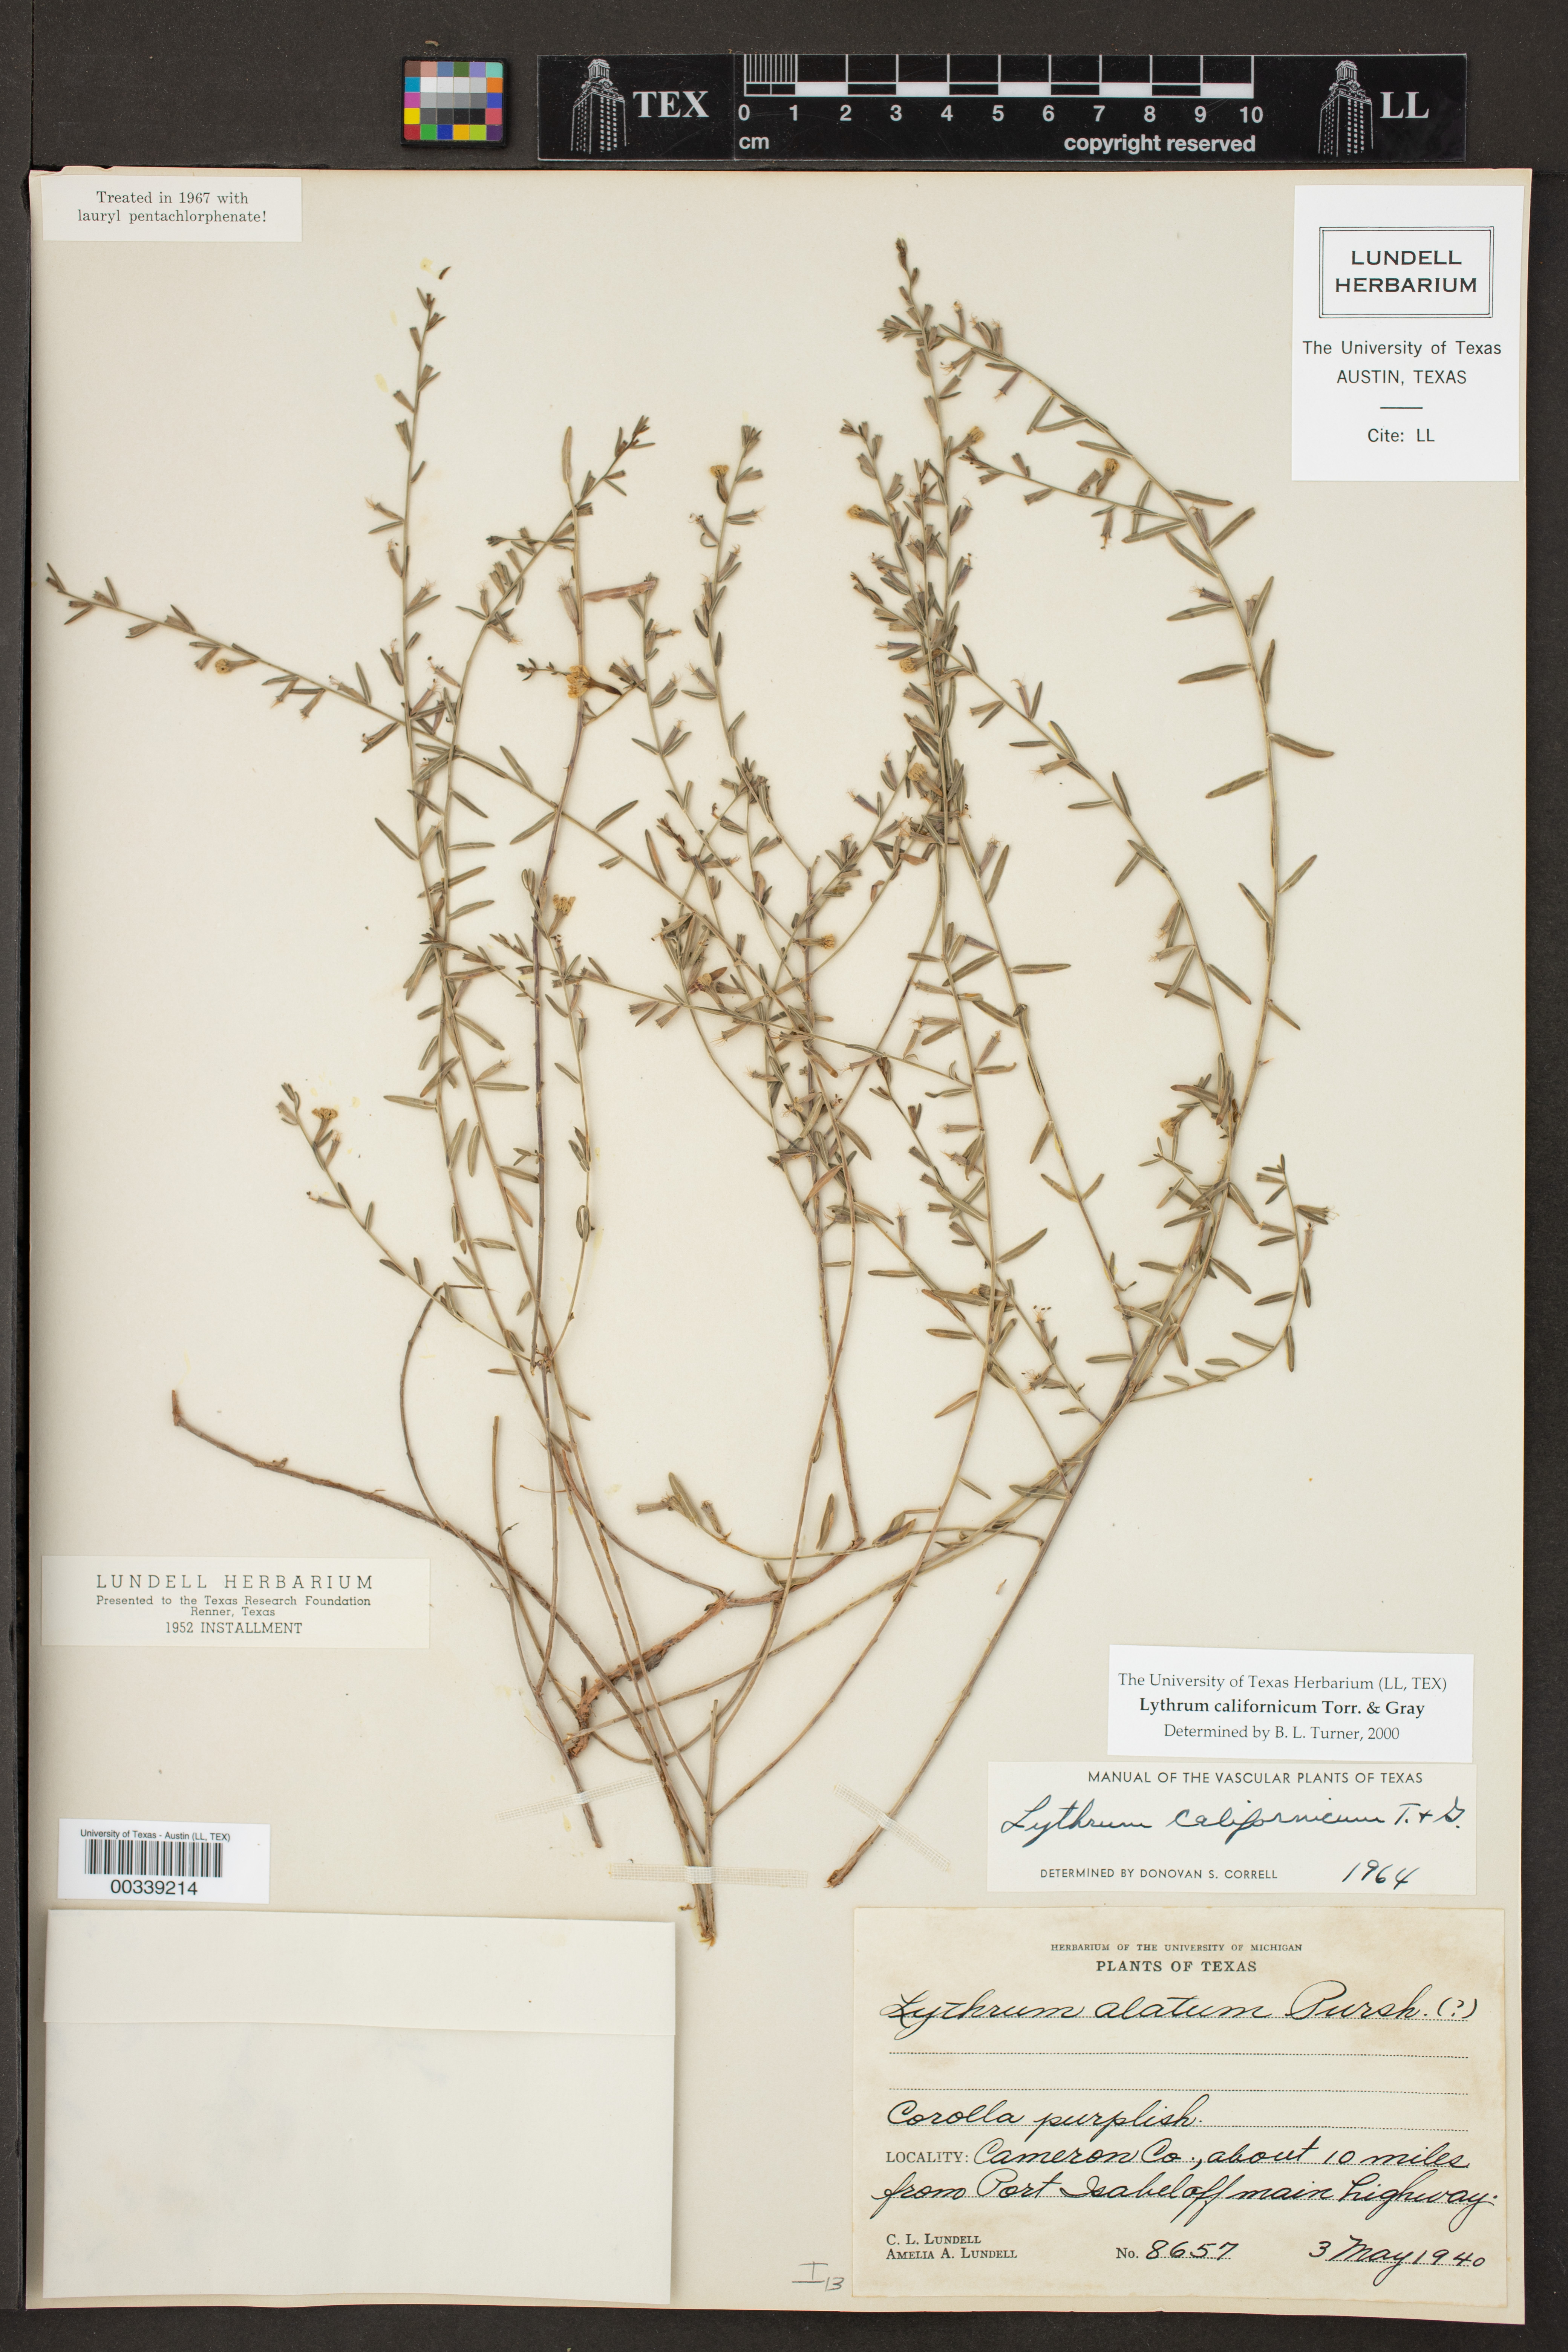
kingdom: Plantae
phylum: Tracheophyta
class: Magnoliopsida
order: Myrtales
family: Lythraceae
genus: Lythrum
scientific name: Lythrum californicum
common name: California loosestrife
